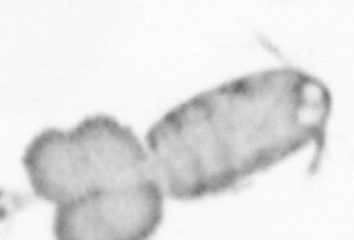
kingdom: Animalia
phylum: Arthropoda
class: Copepoda
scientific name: Copepoda
